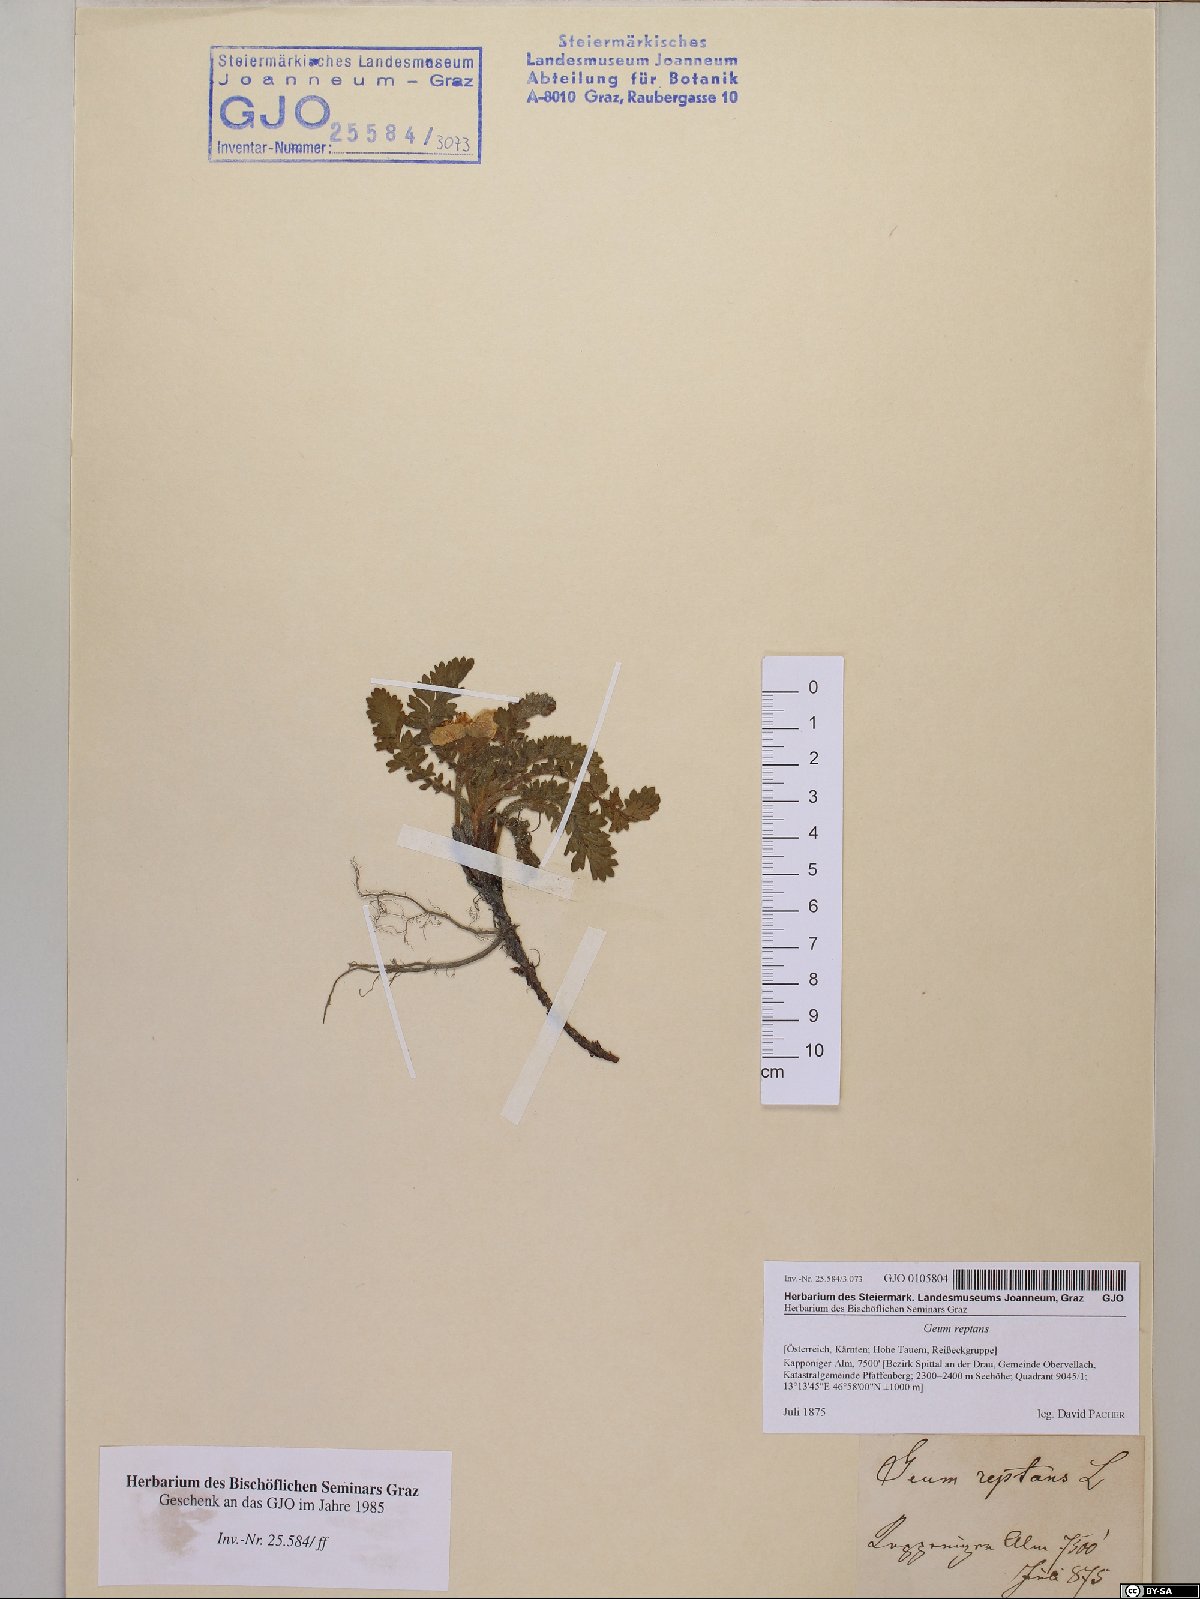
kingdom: Plantae
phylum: Tracheophyta
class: Magnoliopsida
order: Rosales
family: Rosaceae
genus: Geum
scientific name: Geum reptans
